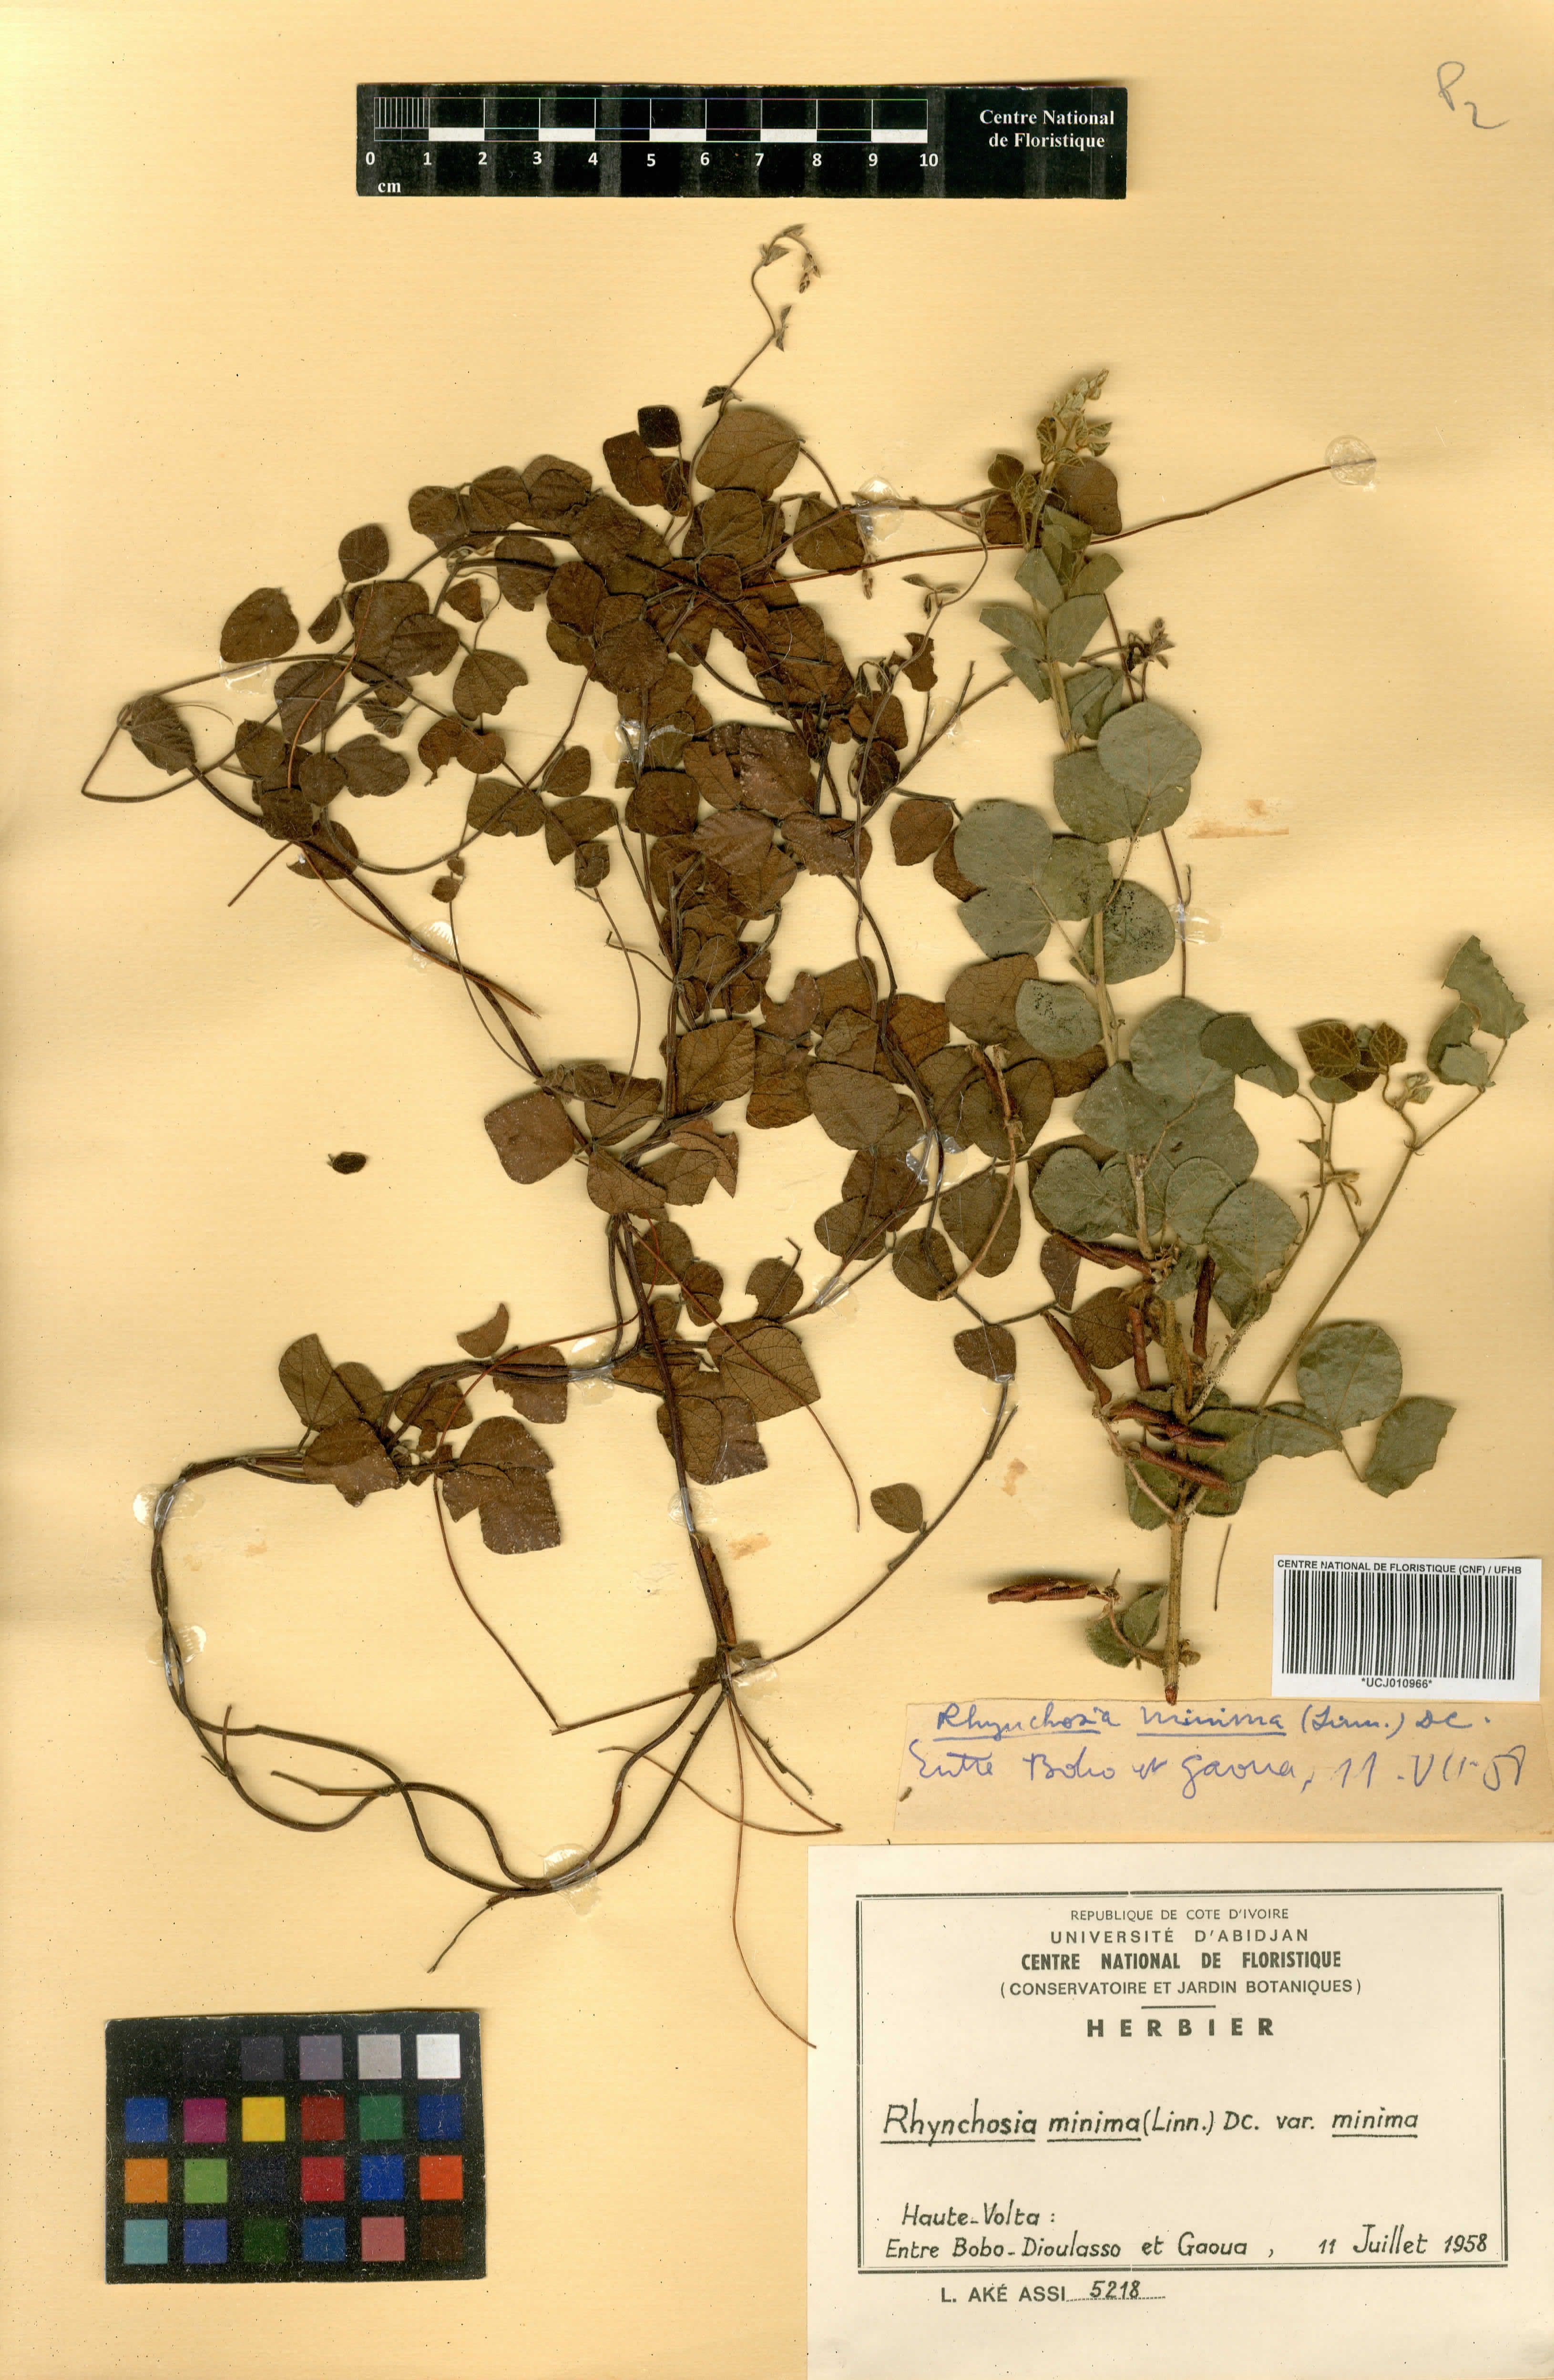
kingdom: Plantae
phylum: Tracheophyta
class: Magnoliopsida
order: Fabales
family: Fabaceae
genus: Rhynchosia
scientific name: Rhynchosia minima
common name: Least snoutbean
